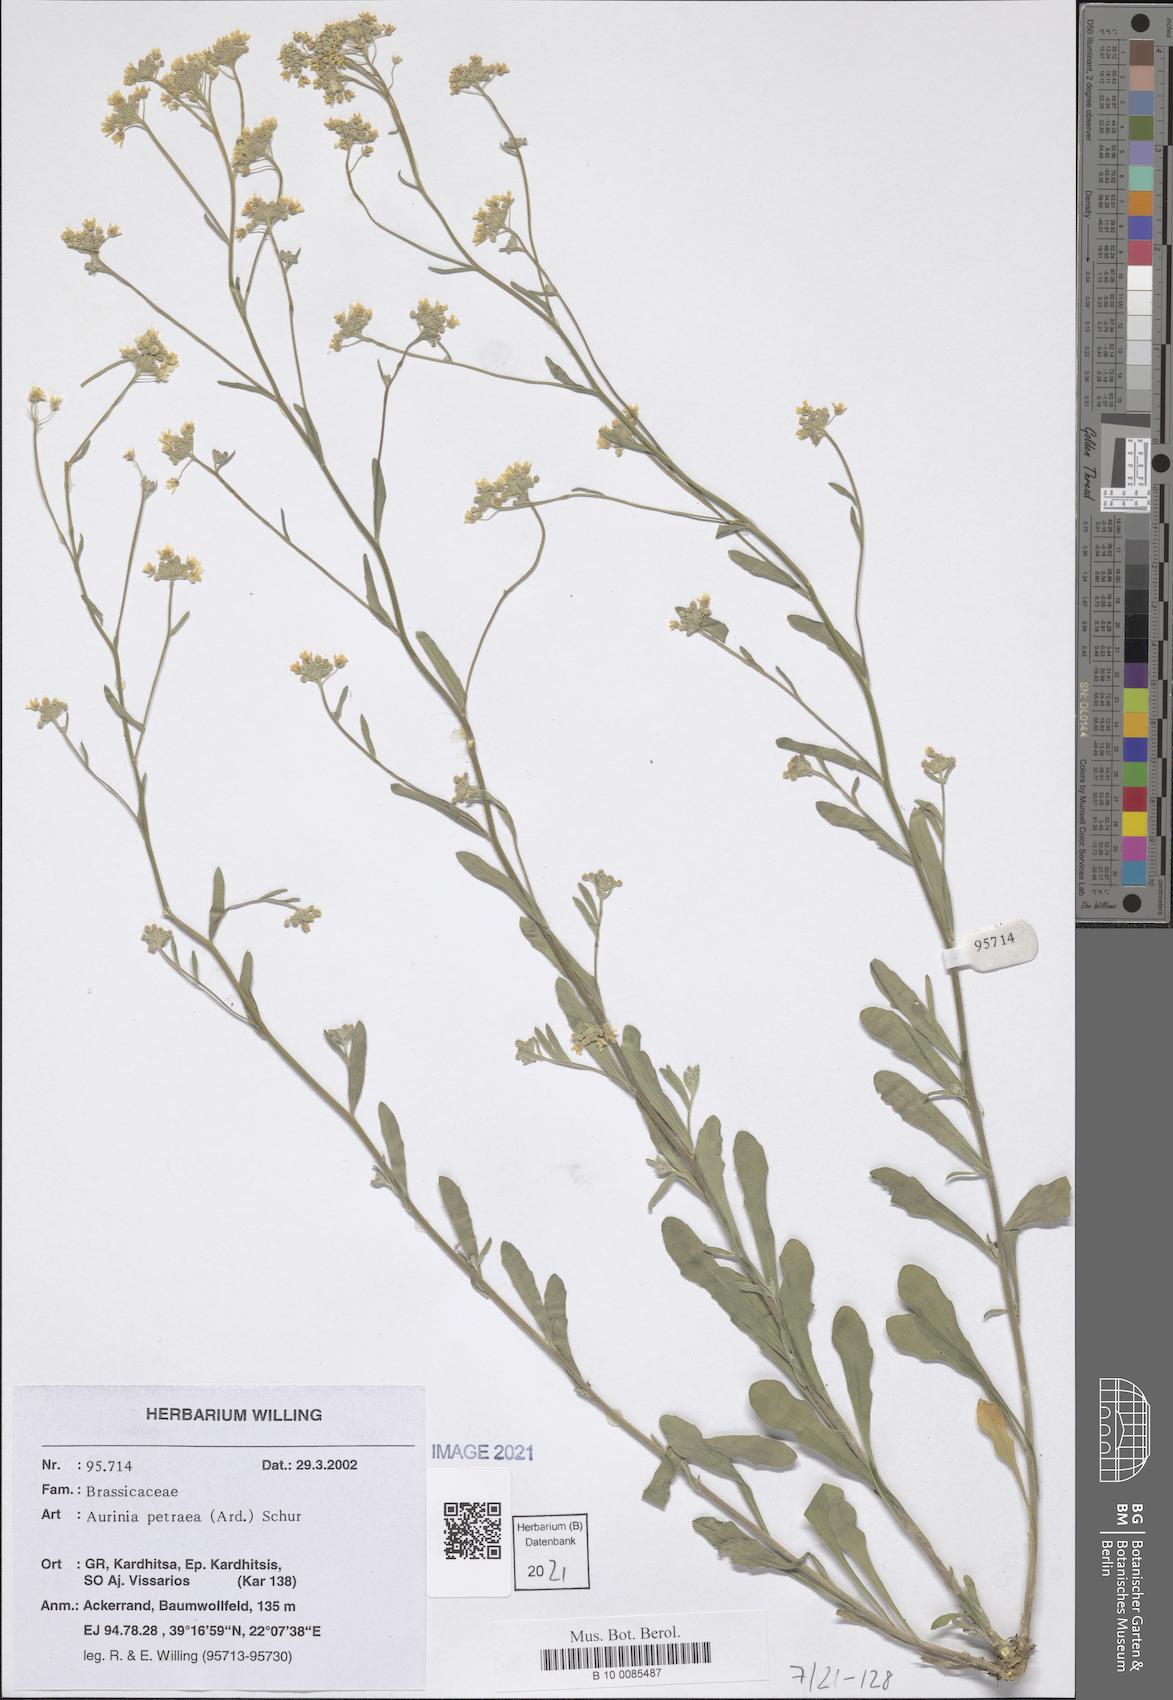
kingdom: Plantae
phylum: Tracheophyta
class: Magnoliopsida
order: Brassicales
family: Brassicaceae
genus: Aurinia
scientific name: Aurinia petraea
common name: Goldentuft
